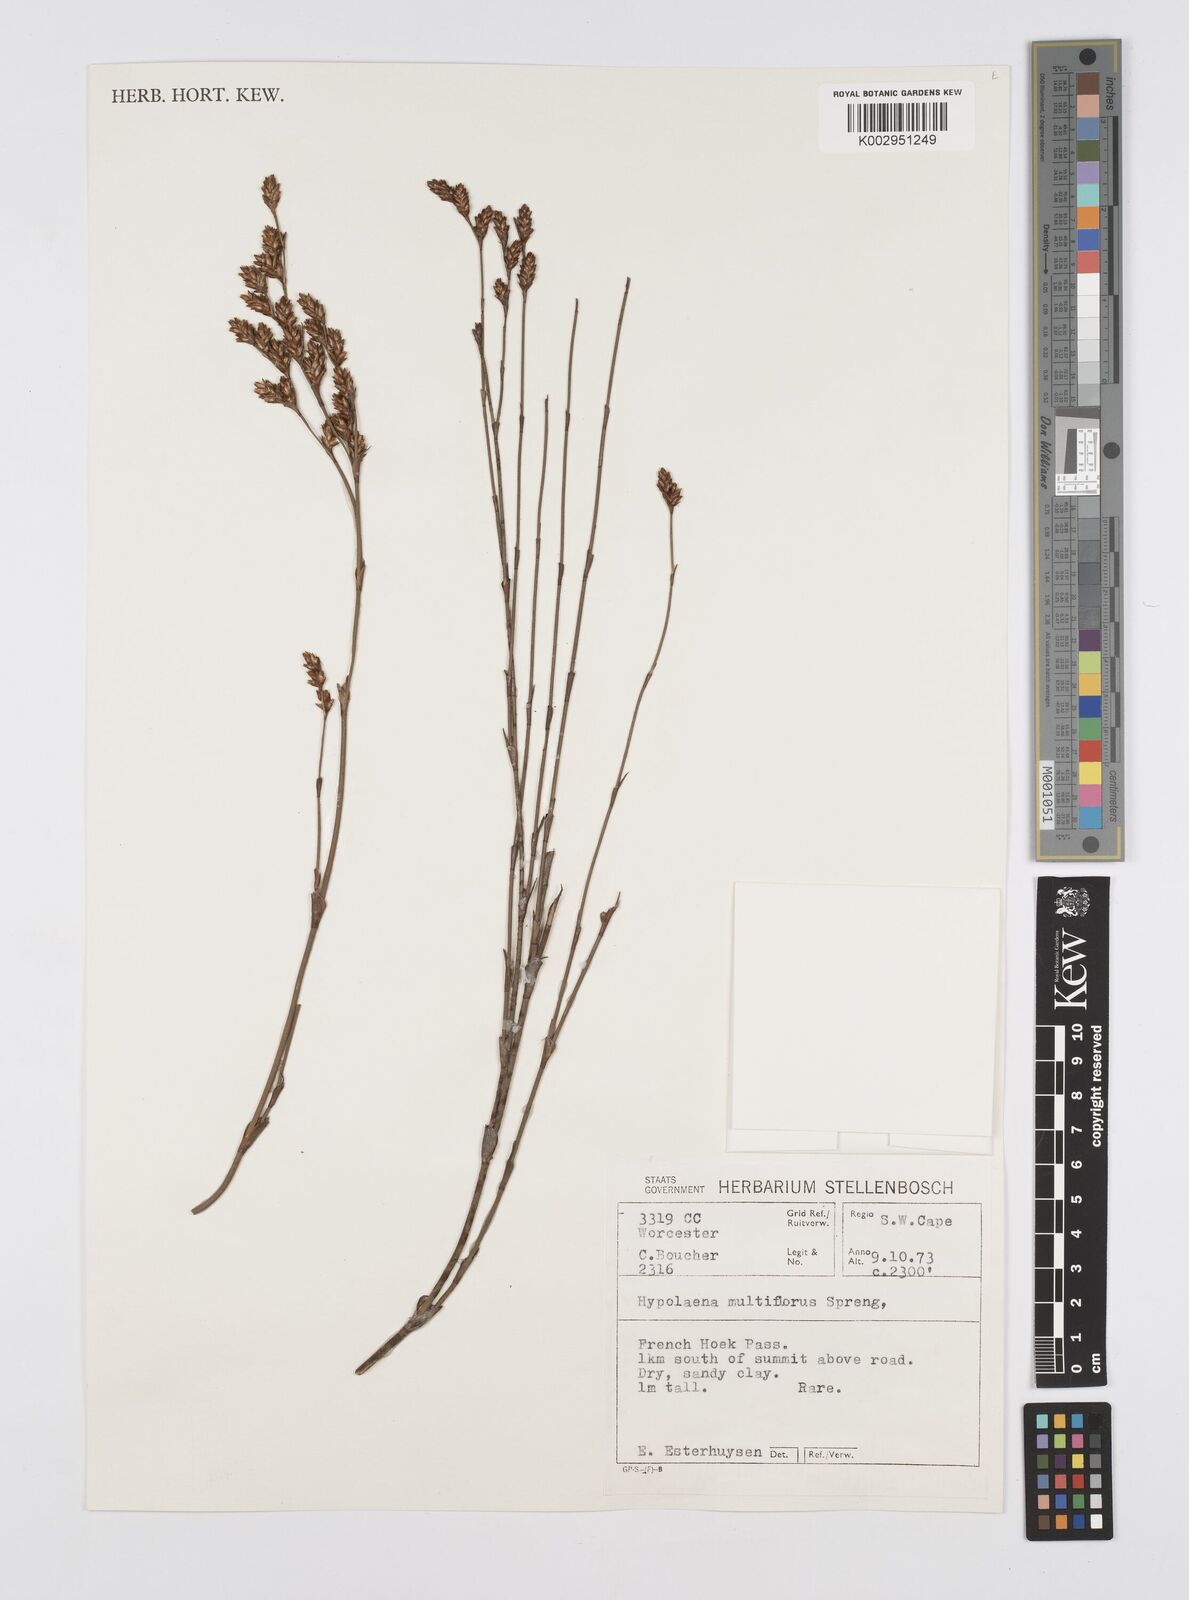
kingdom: Plantae
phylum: Tracheophyta
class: Liliopsida
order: Poales
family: Restionaceae
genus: Restio
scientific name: Restio multiflorus
